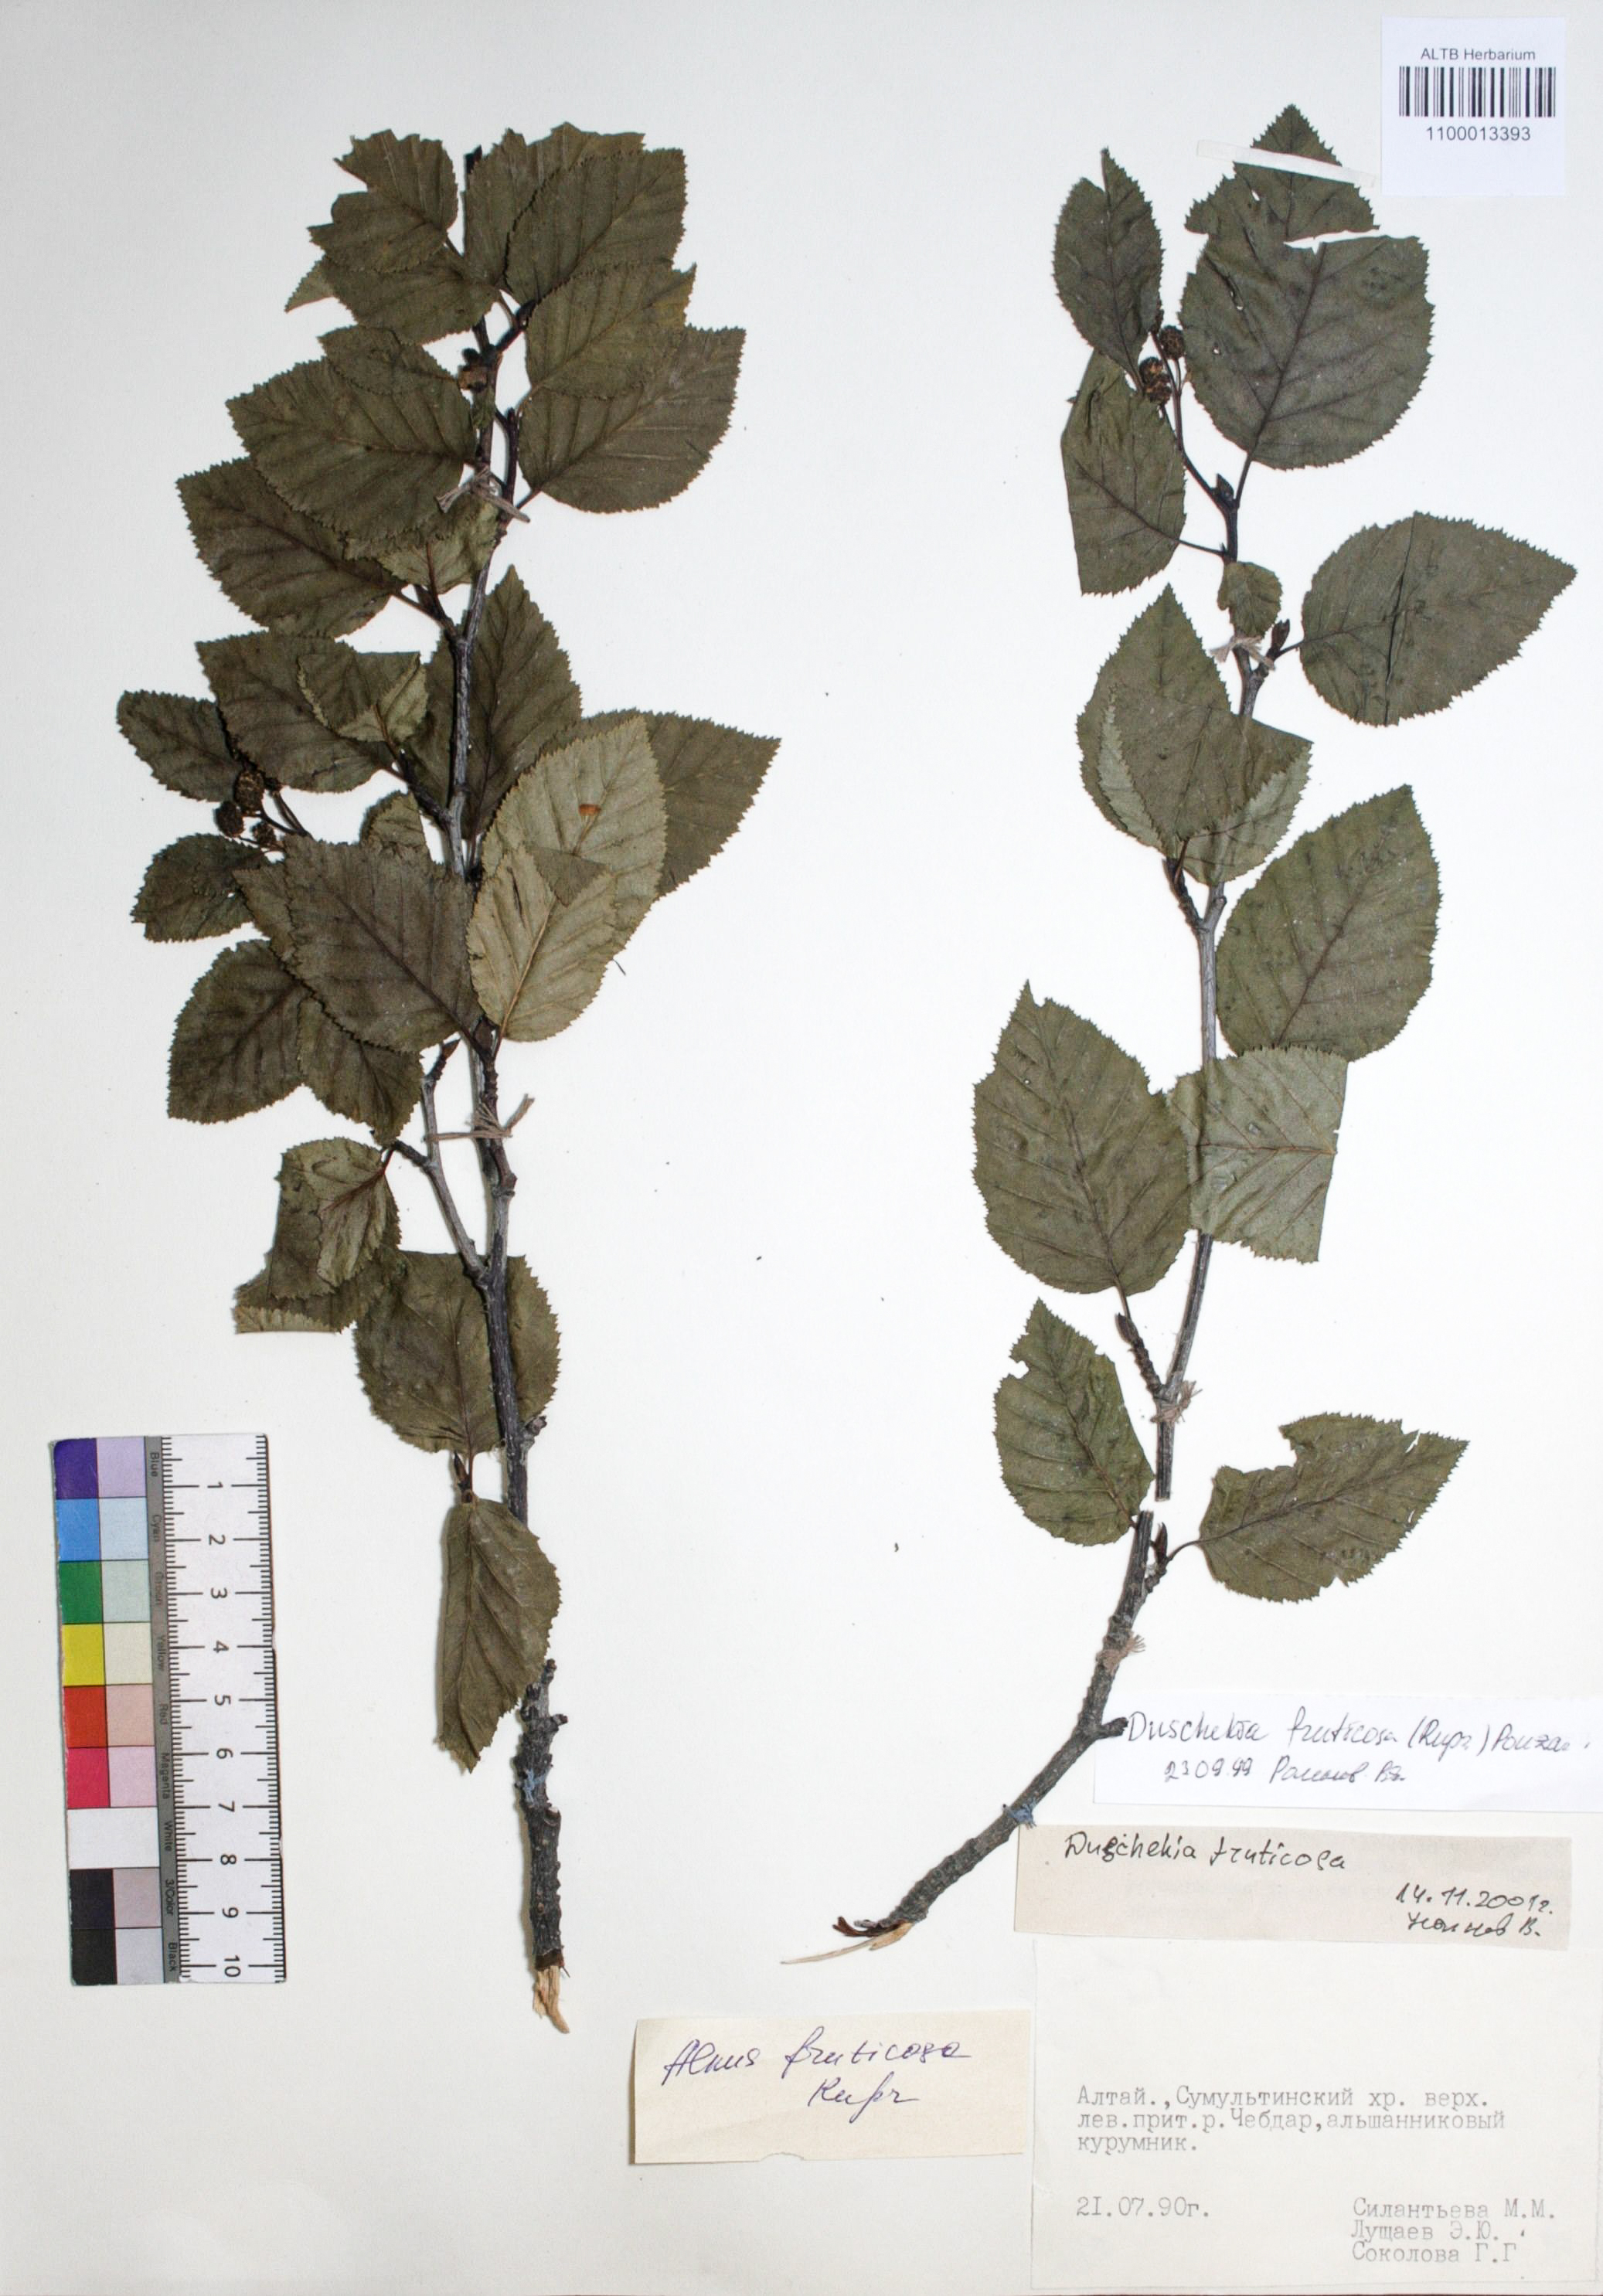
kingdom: Plantae
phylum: Tracheophyta
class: Magnoliopsida
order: Fagales
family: Betulaceae
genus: Alnus
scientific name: Alnus alnobetula
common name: Green alder
